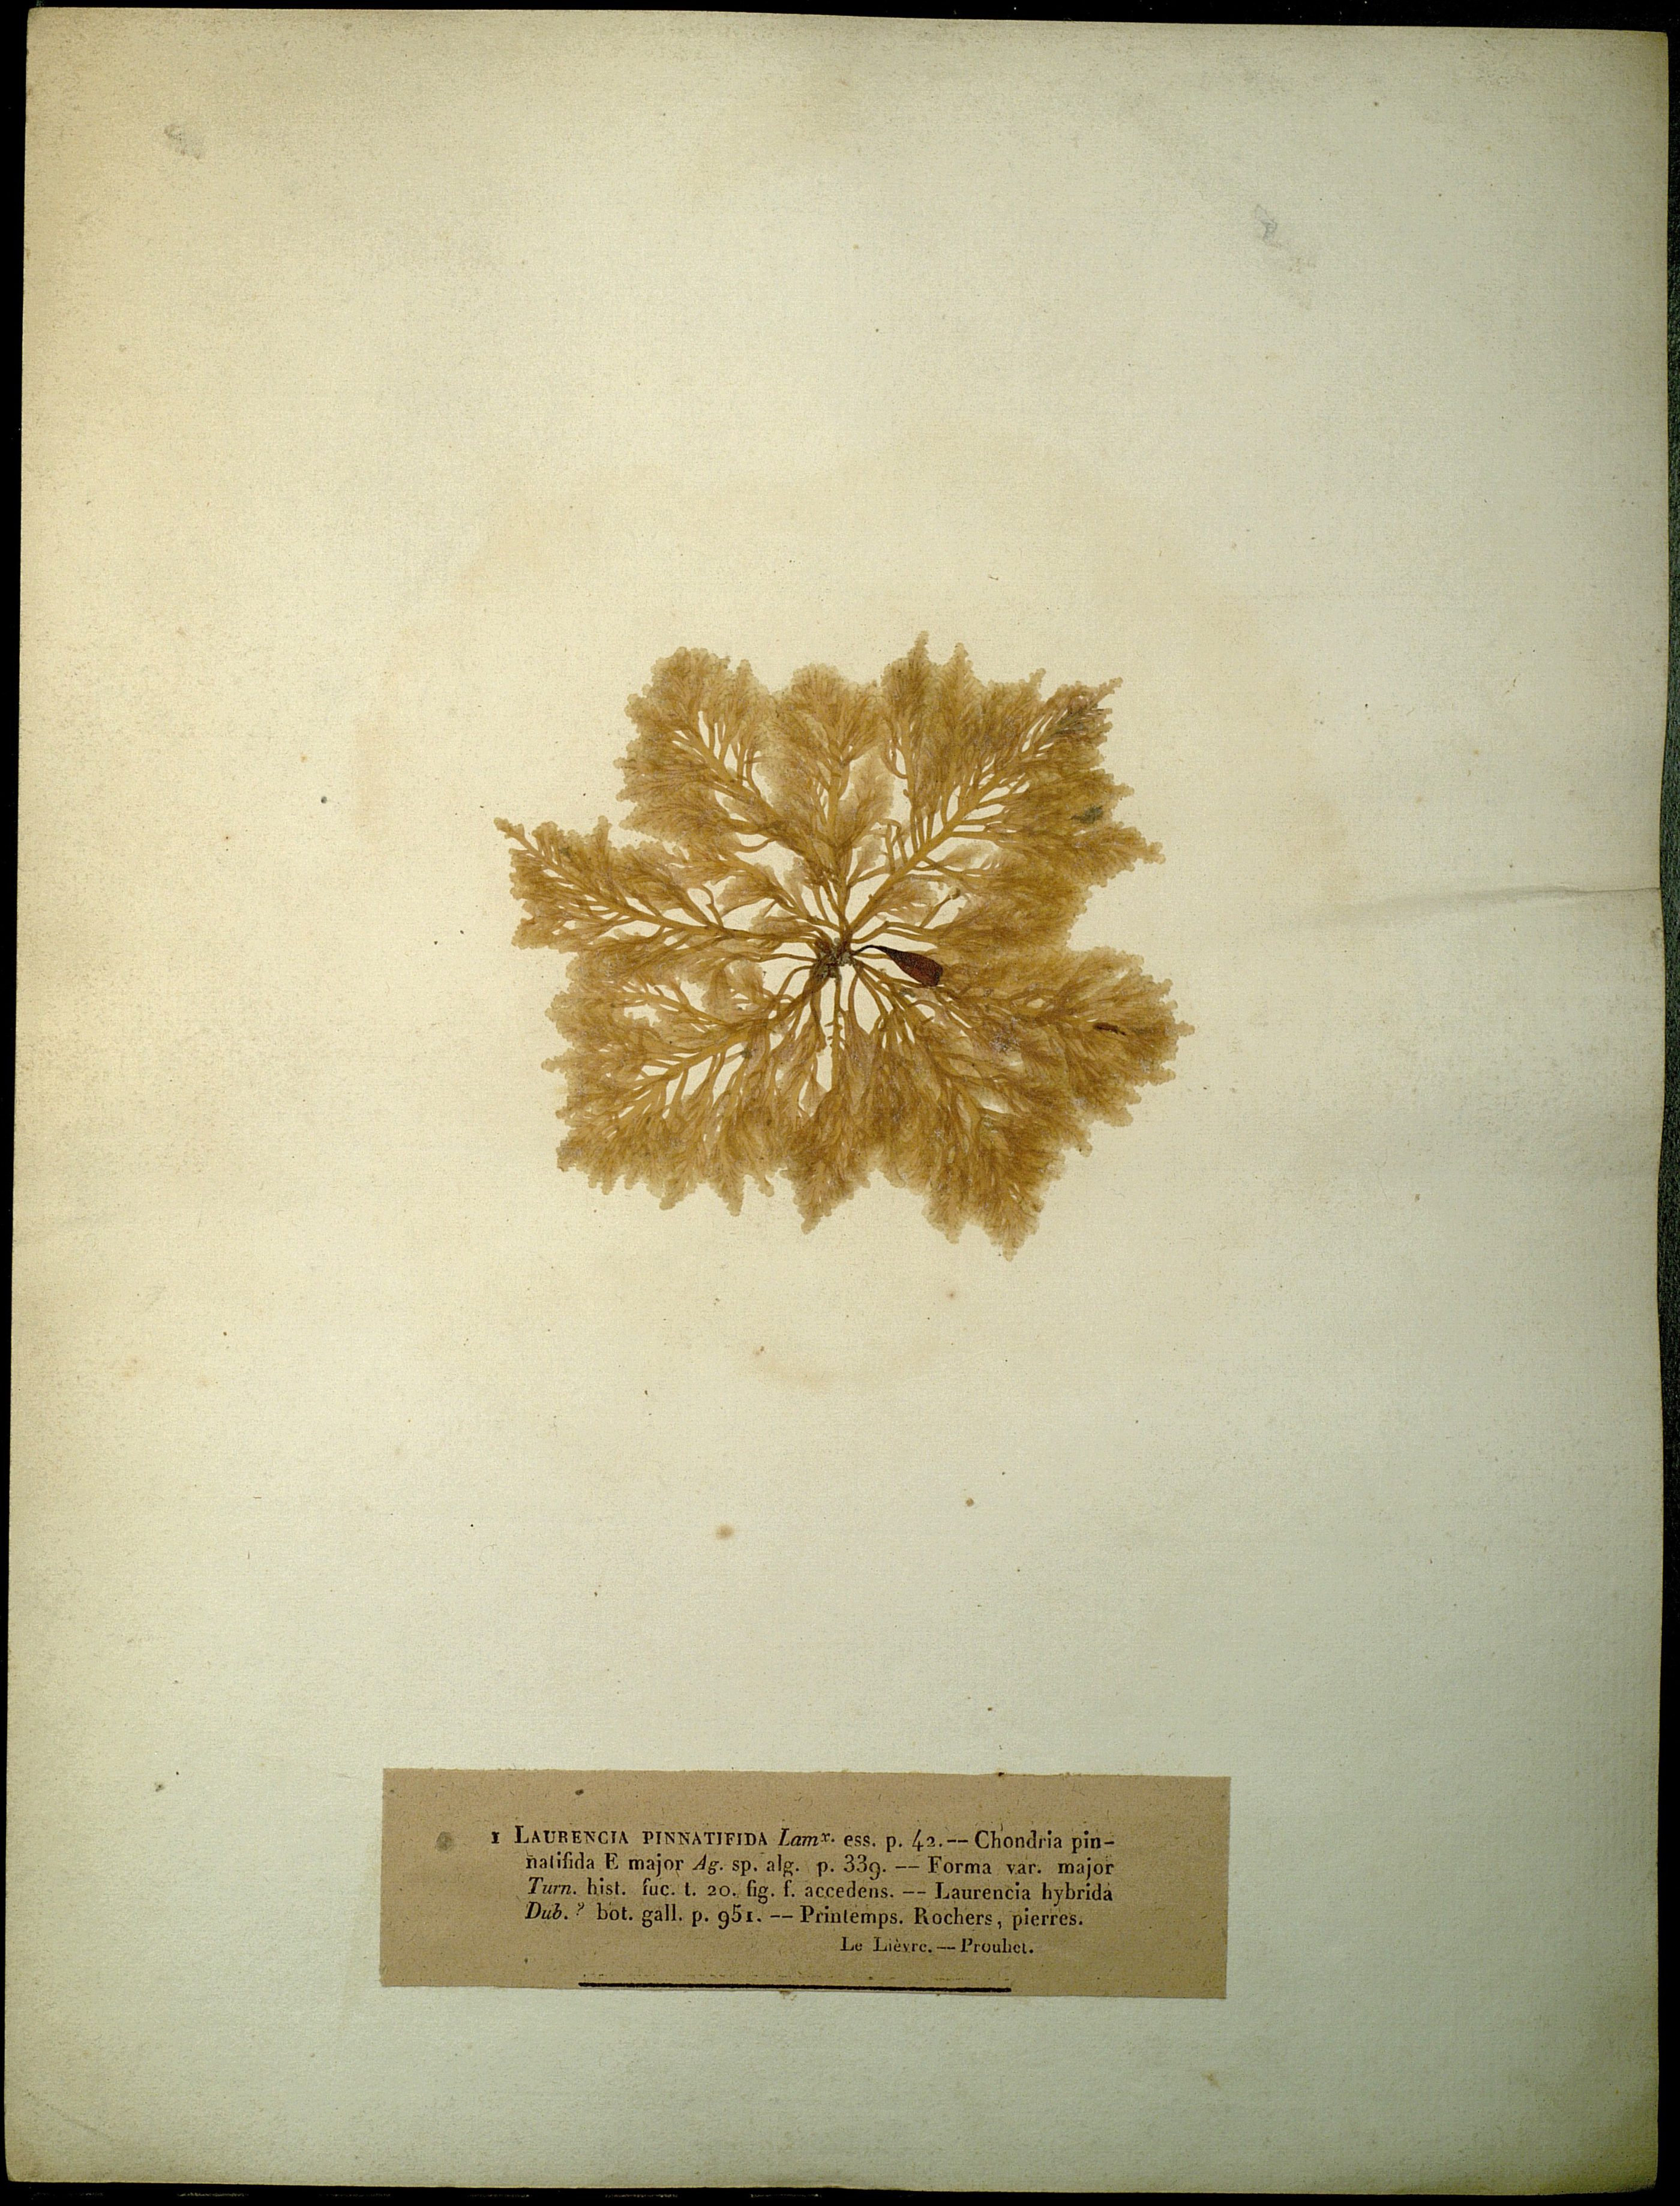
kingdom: Plantae
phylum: Rhodophyta
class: Florideophyceae
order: Ceramiales
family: Rhodomelaceae
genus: Laurencia
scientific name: Laurencia Osmundea pinnatifida
